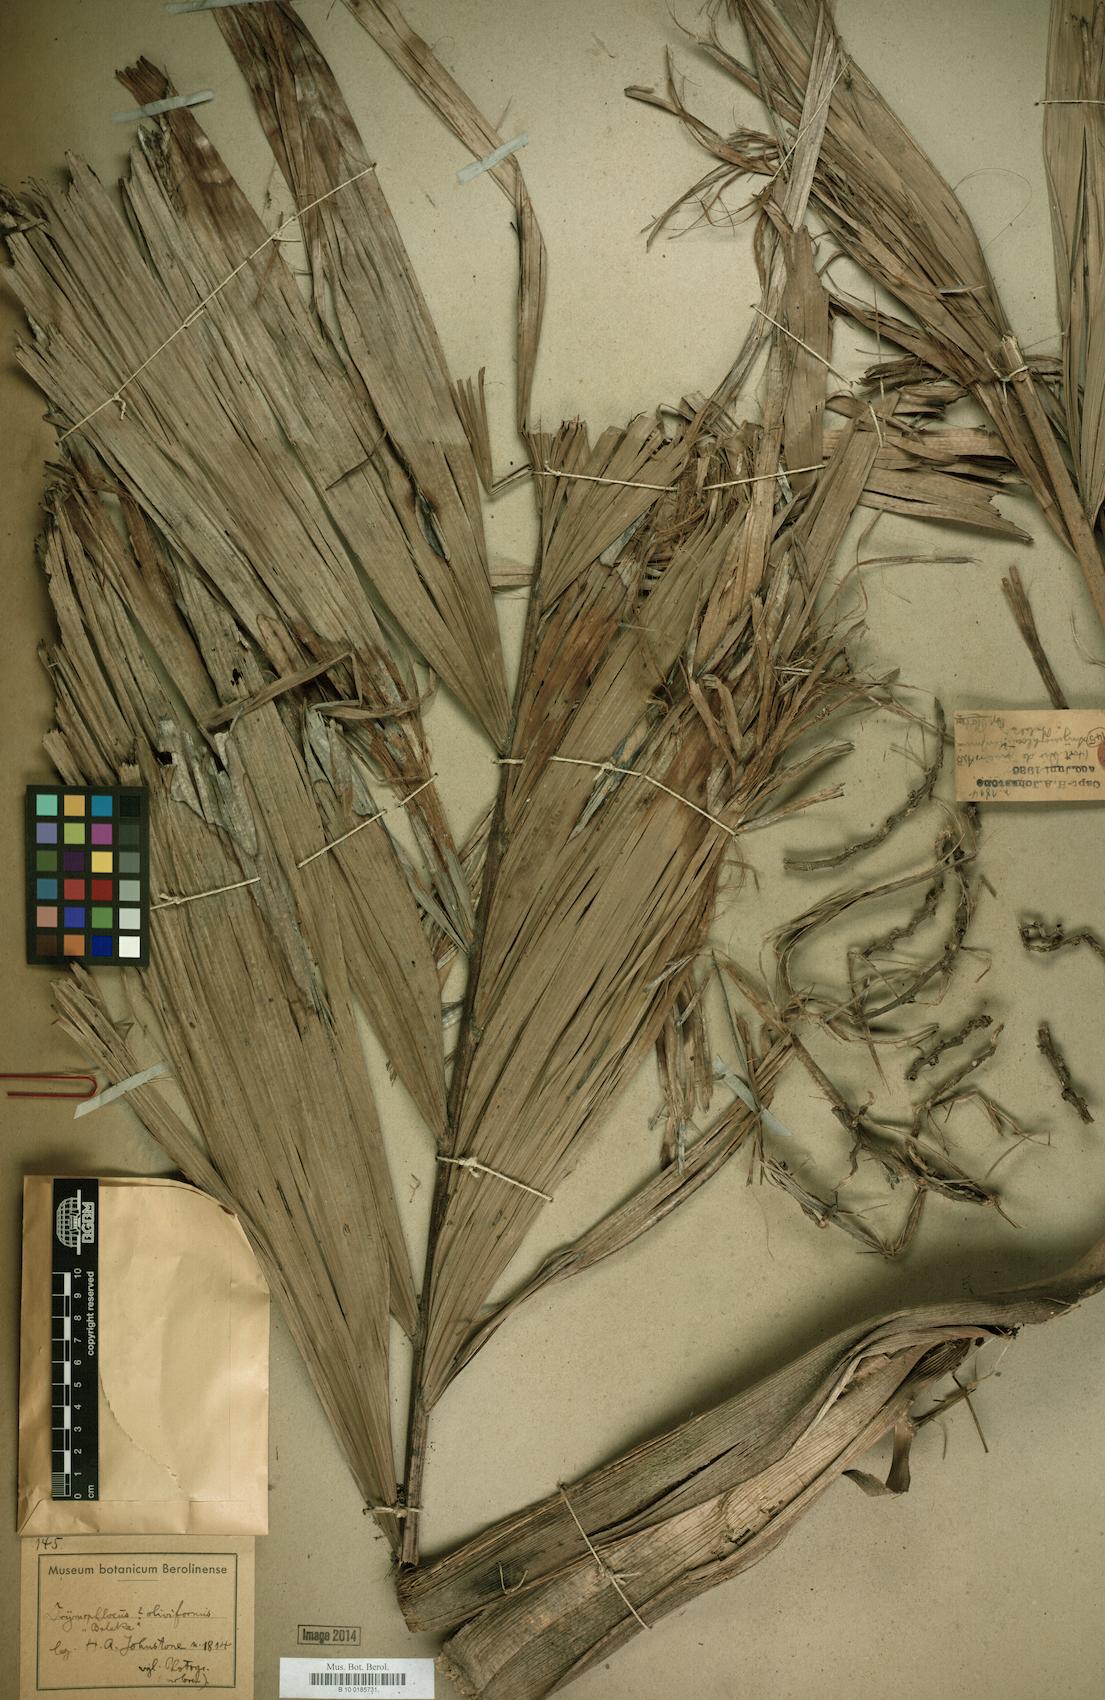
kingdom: Plantae
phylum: Tracheophyta
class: Liliopsida
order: Arecales
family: Arecaceae
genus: Drymophloeus
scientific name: Drymophloeus oliviformis
